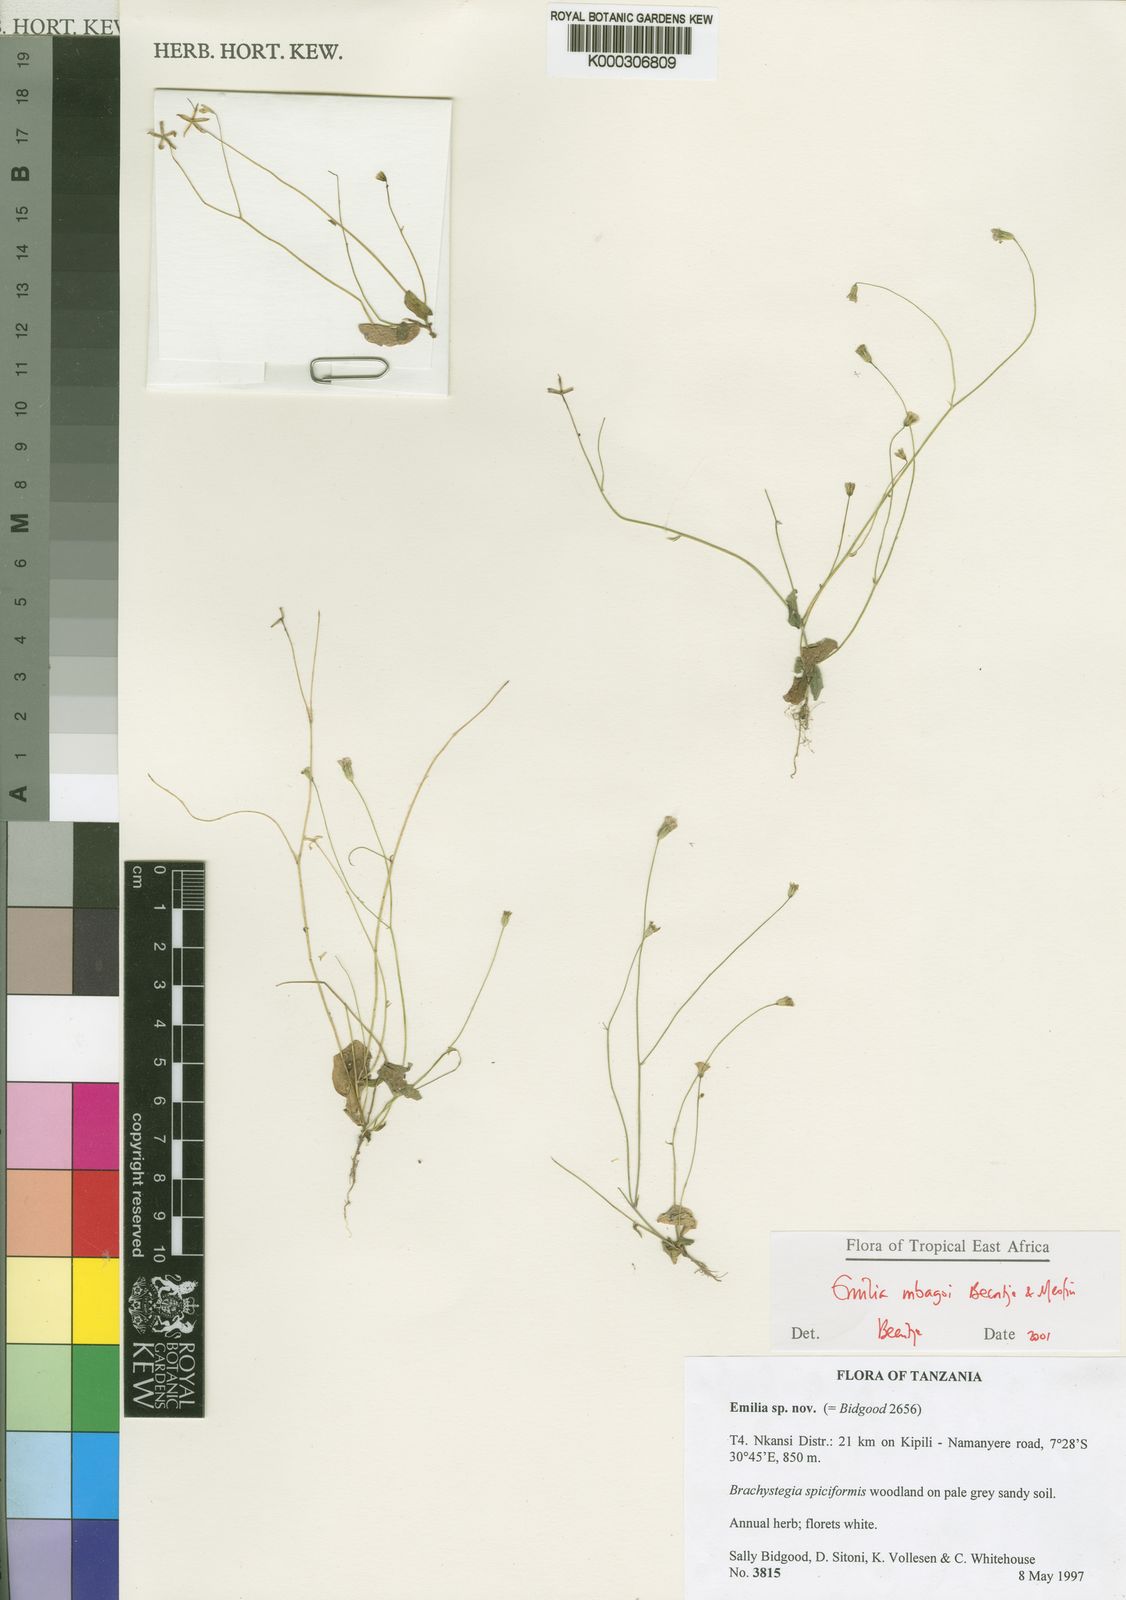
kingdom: Plantae
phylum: Tracheophyta
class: Magnoliopsida
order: Asterales
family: Asteraceae
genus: Emilia
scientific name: Emilia mbagoi
